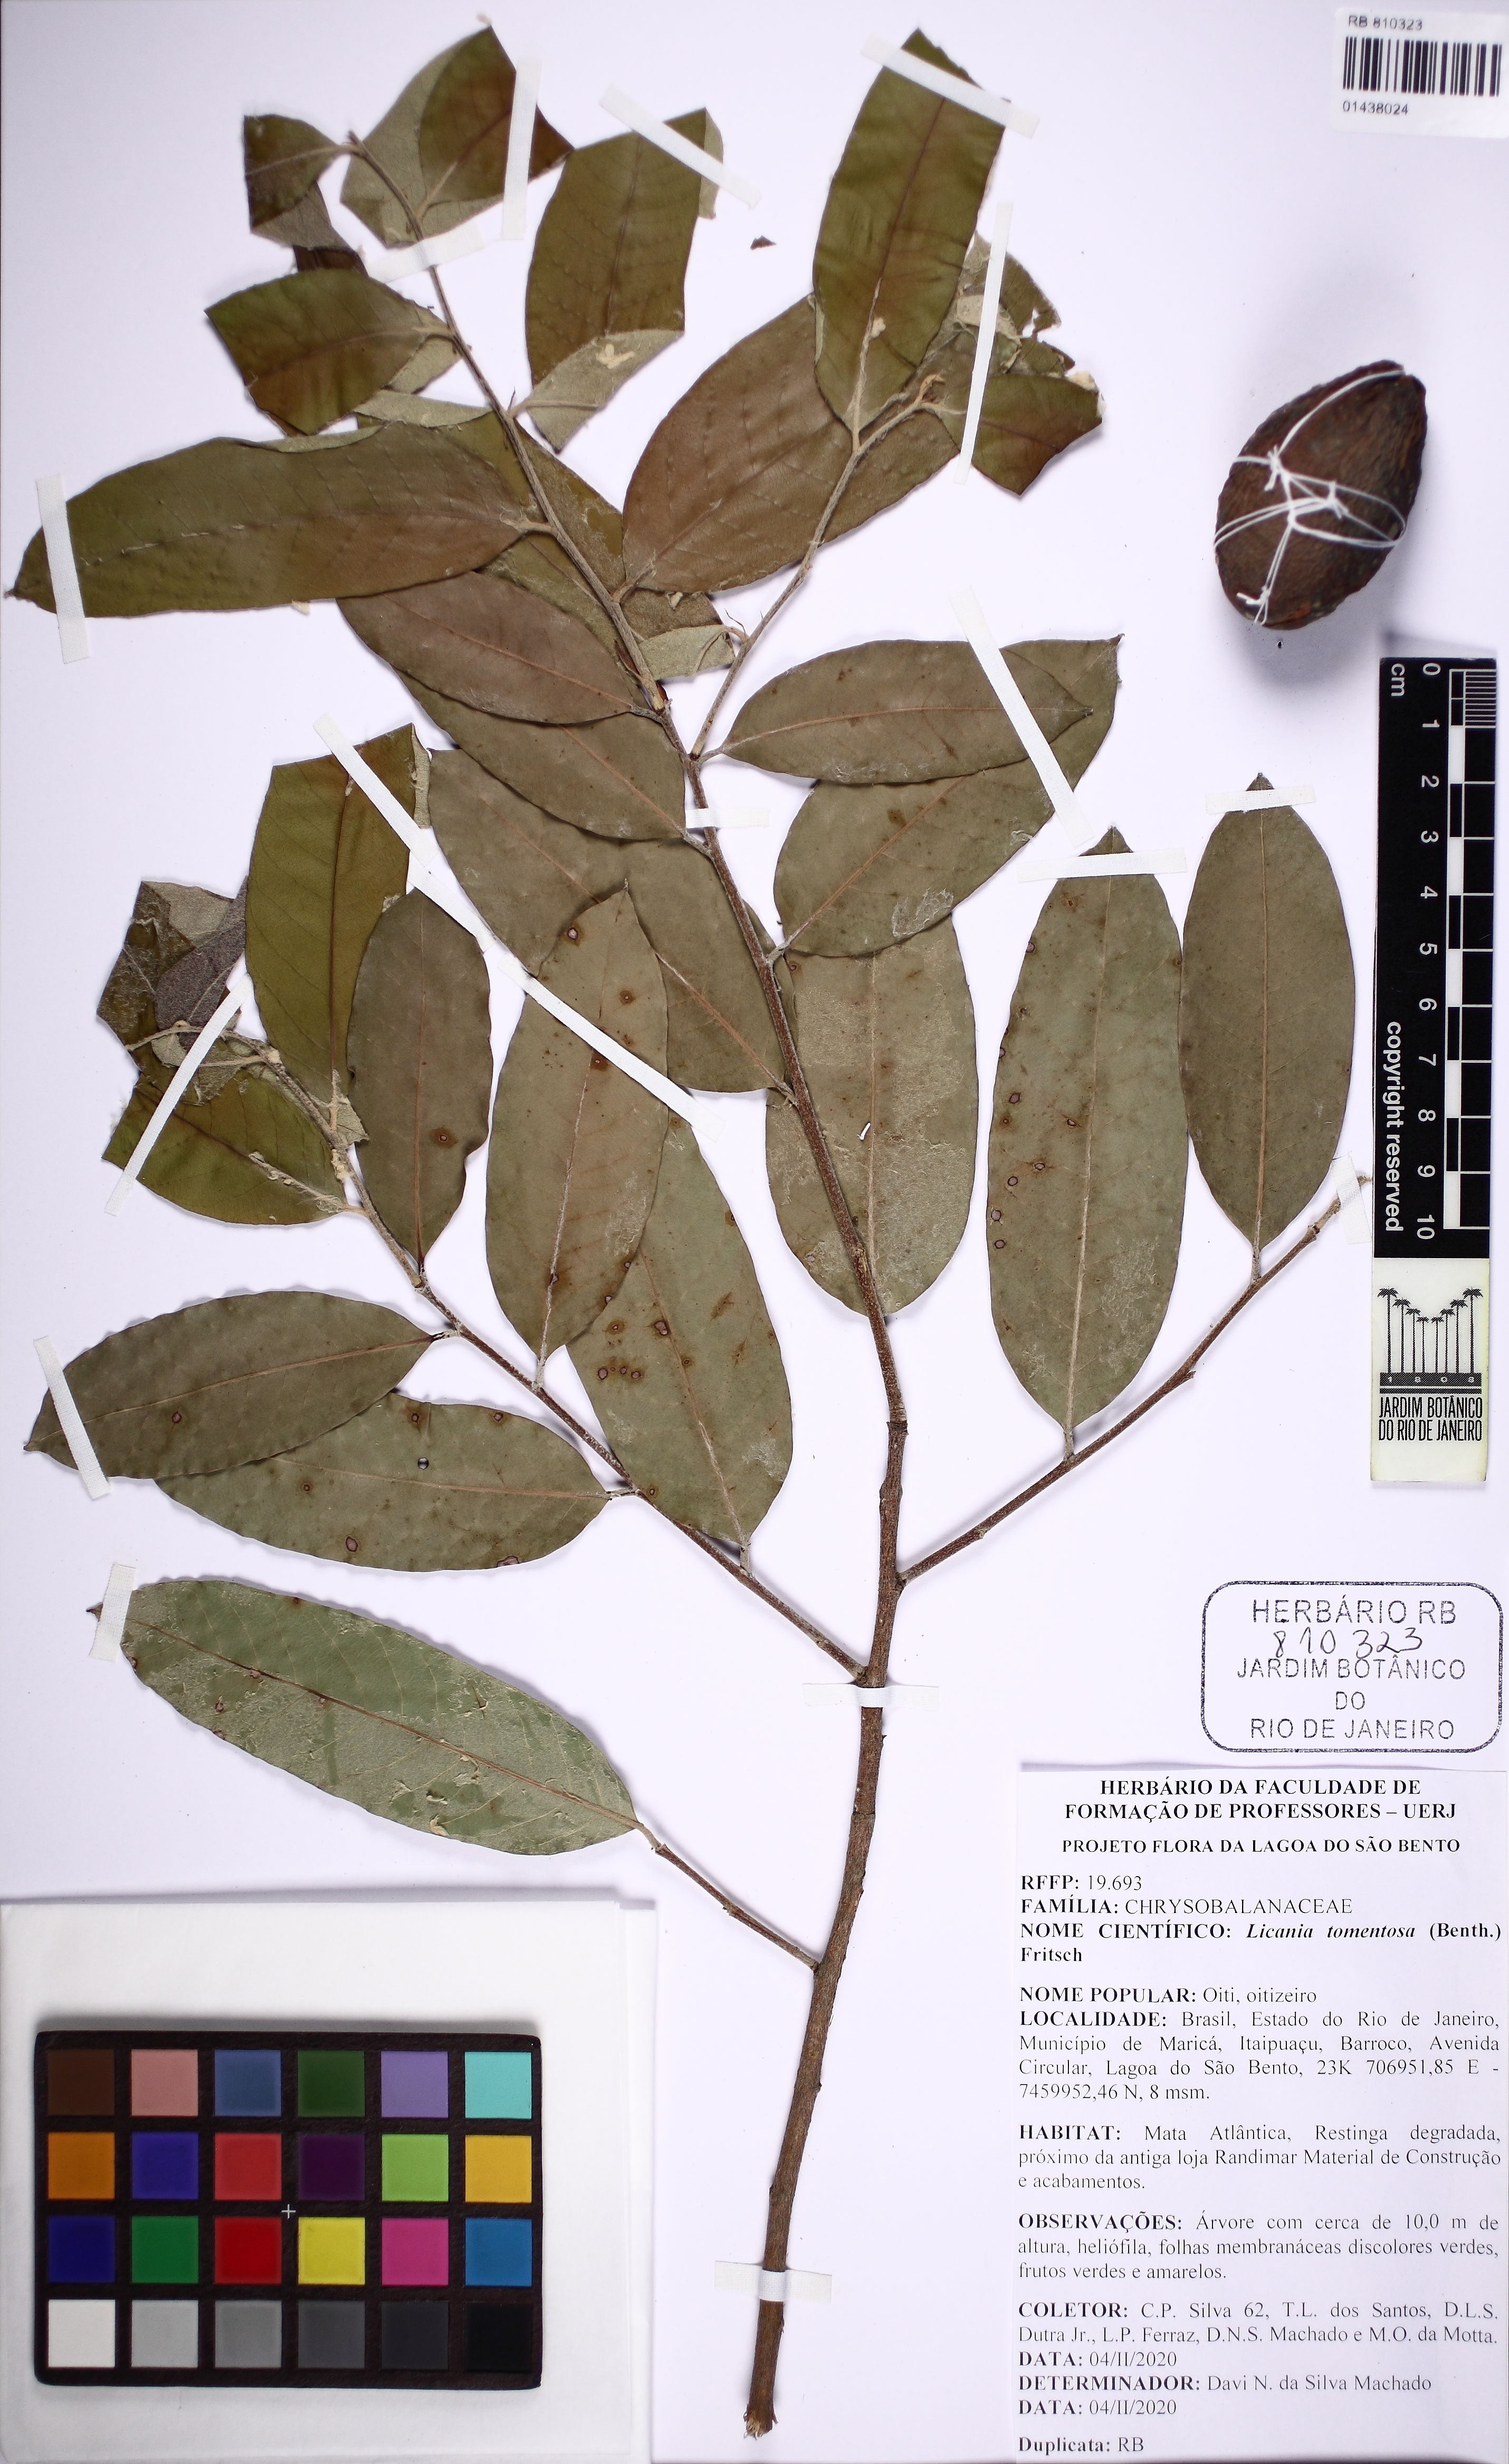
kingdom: Plantae
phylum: Tracheophyta
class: Magnoliopsida
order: Malpighiales
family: Chrysobalanaceae
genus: Moquilea
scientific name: Moquilea tomentosa
